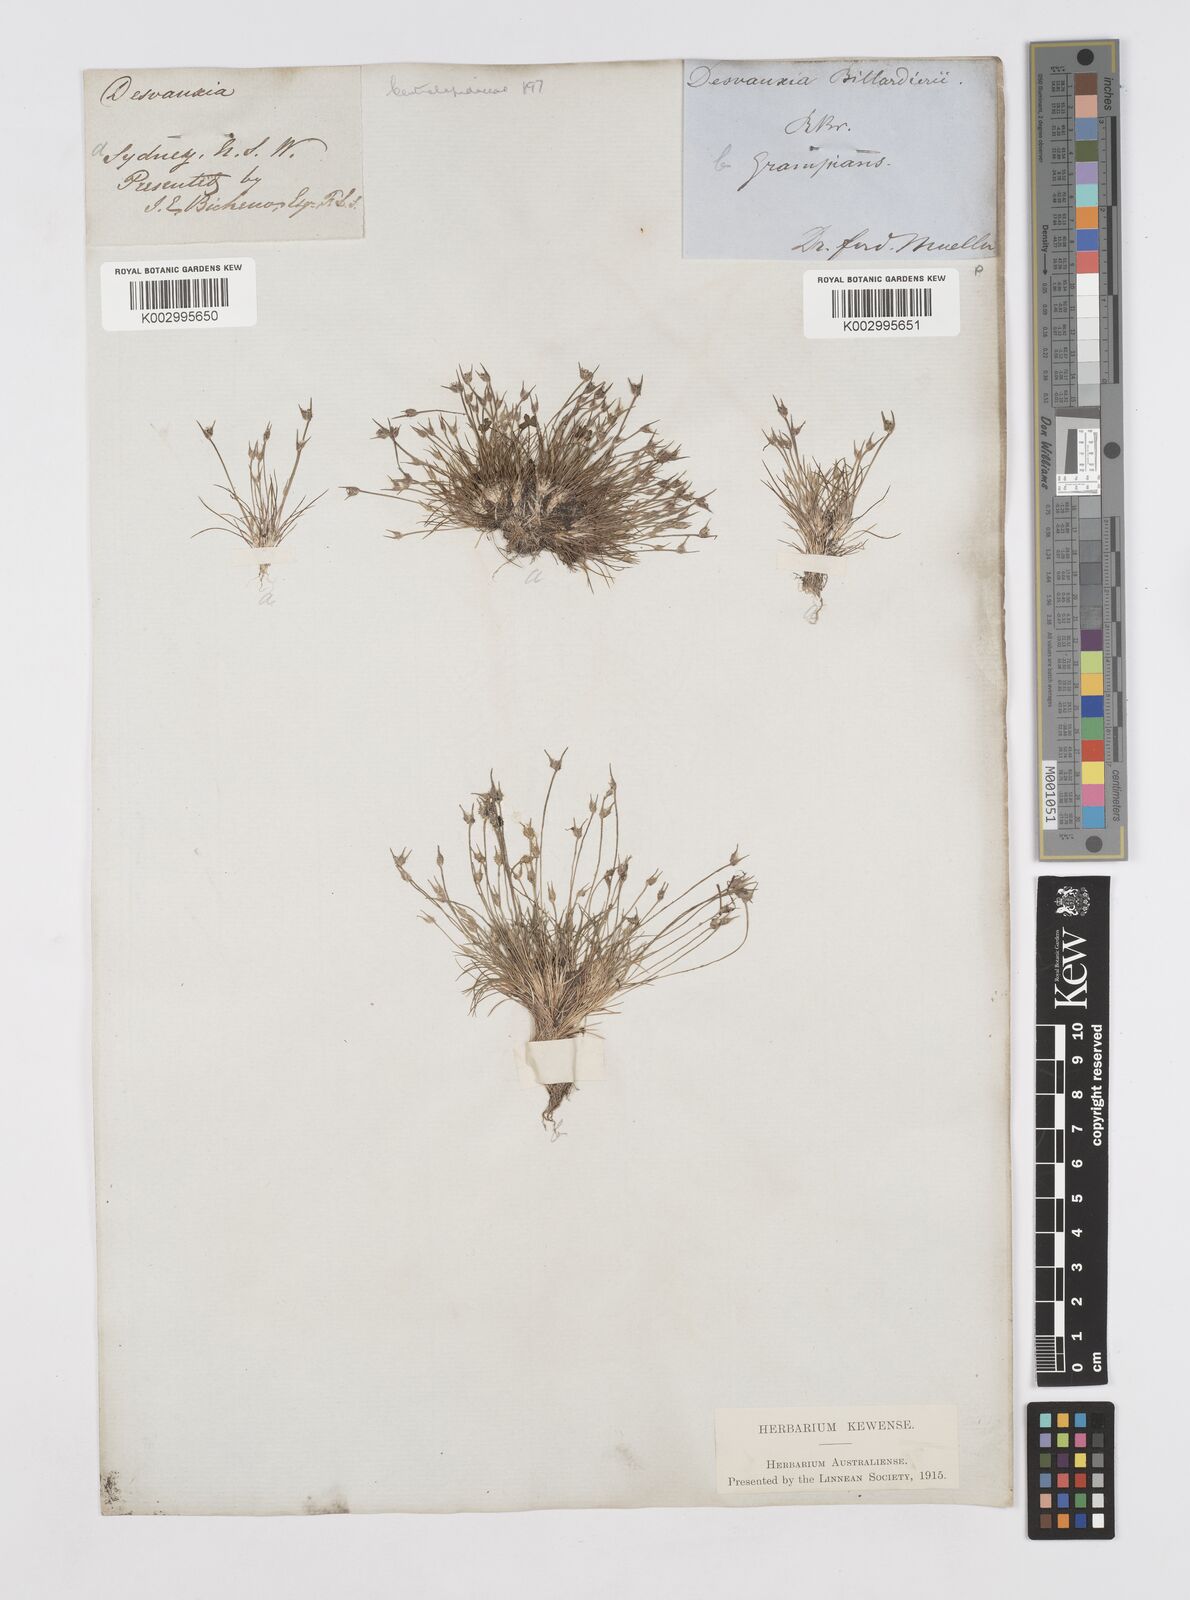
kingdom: Plantae
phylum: Tracheophyta
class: Liliopsida
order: Poales
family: Restionaceae
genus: Centrolepis
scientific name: Centrolepis fascicularis
